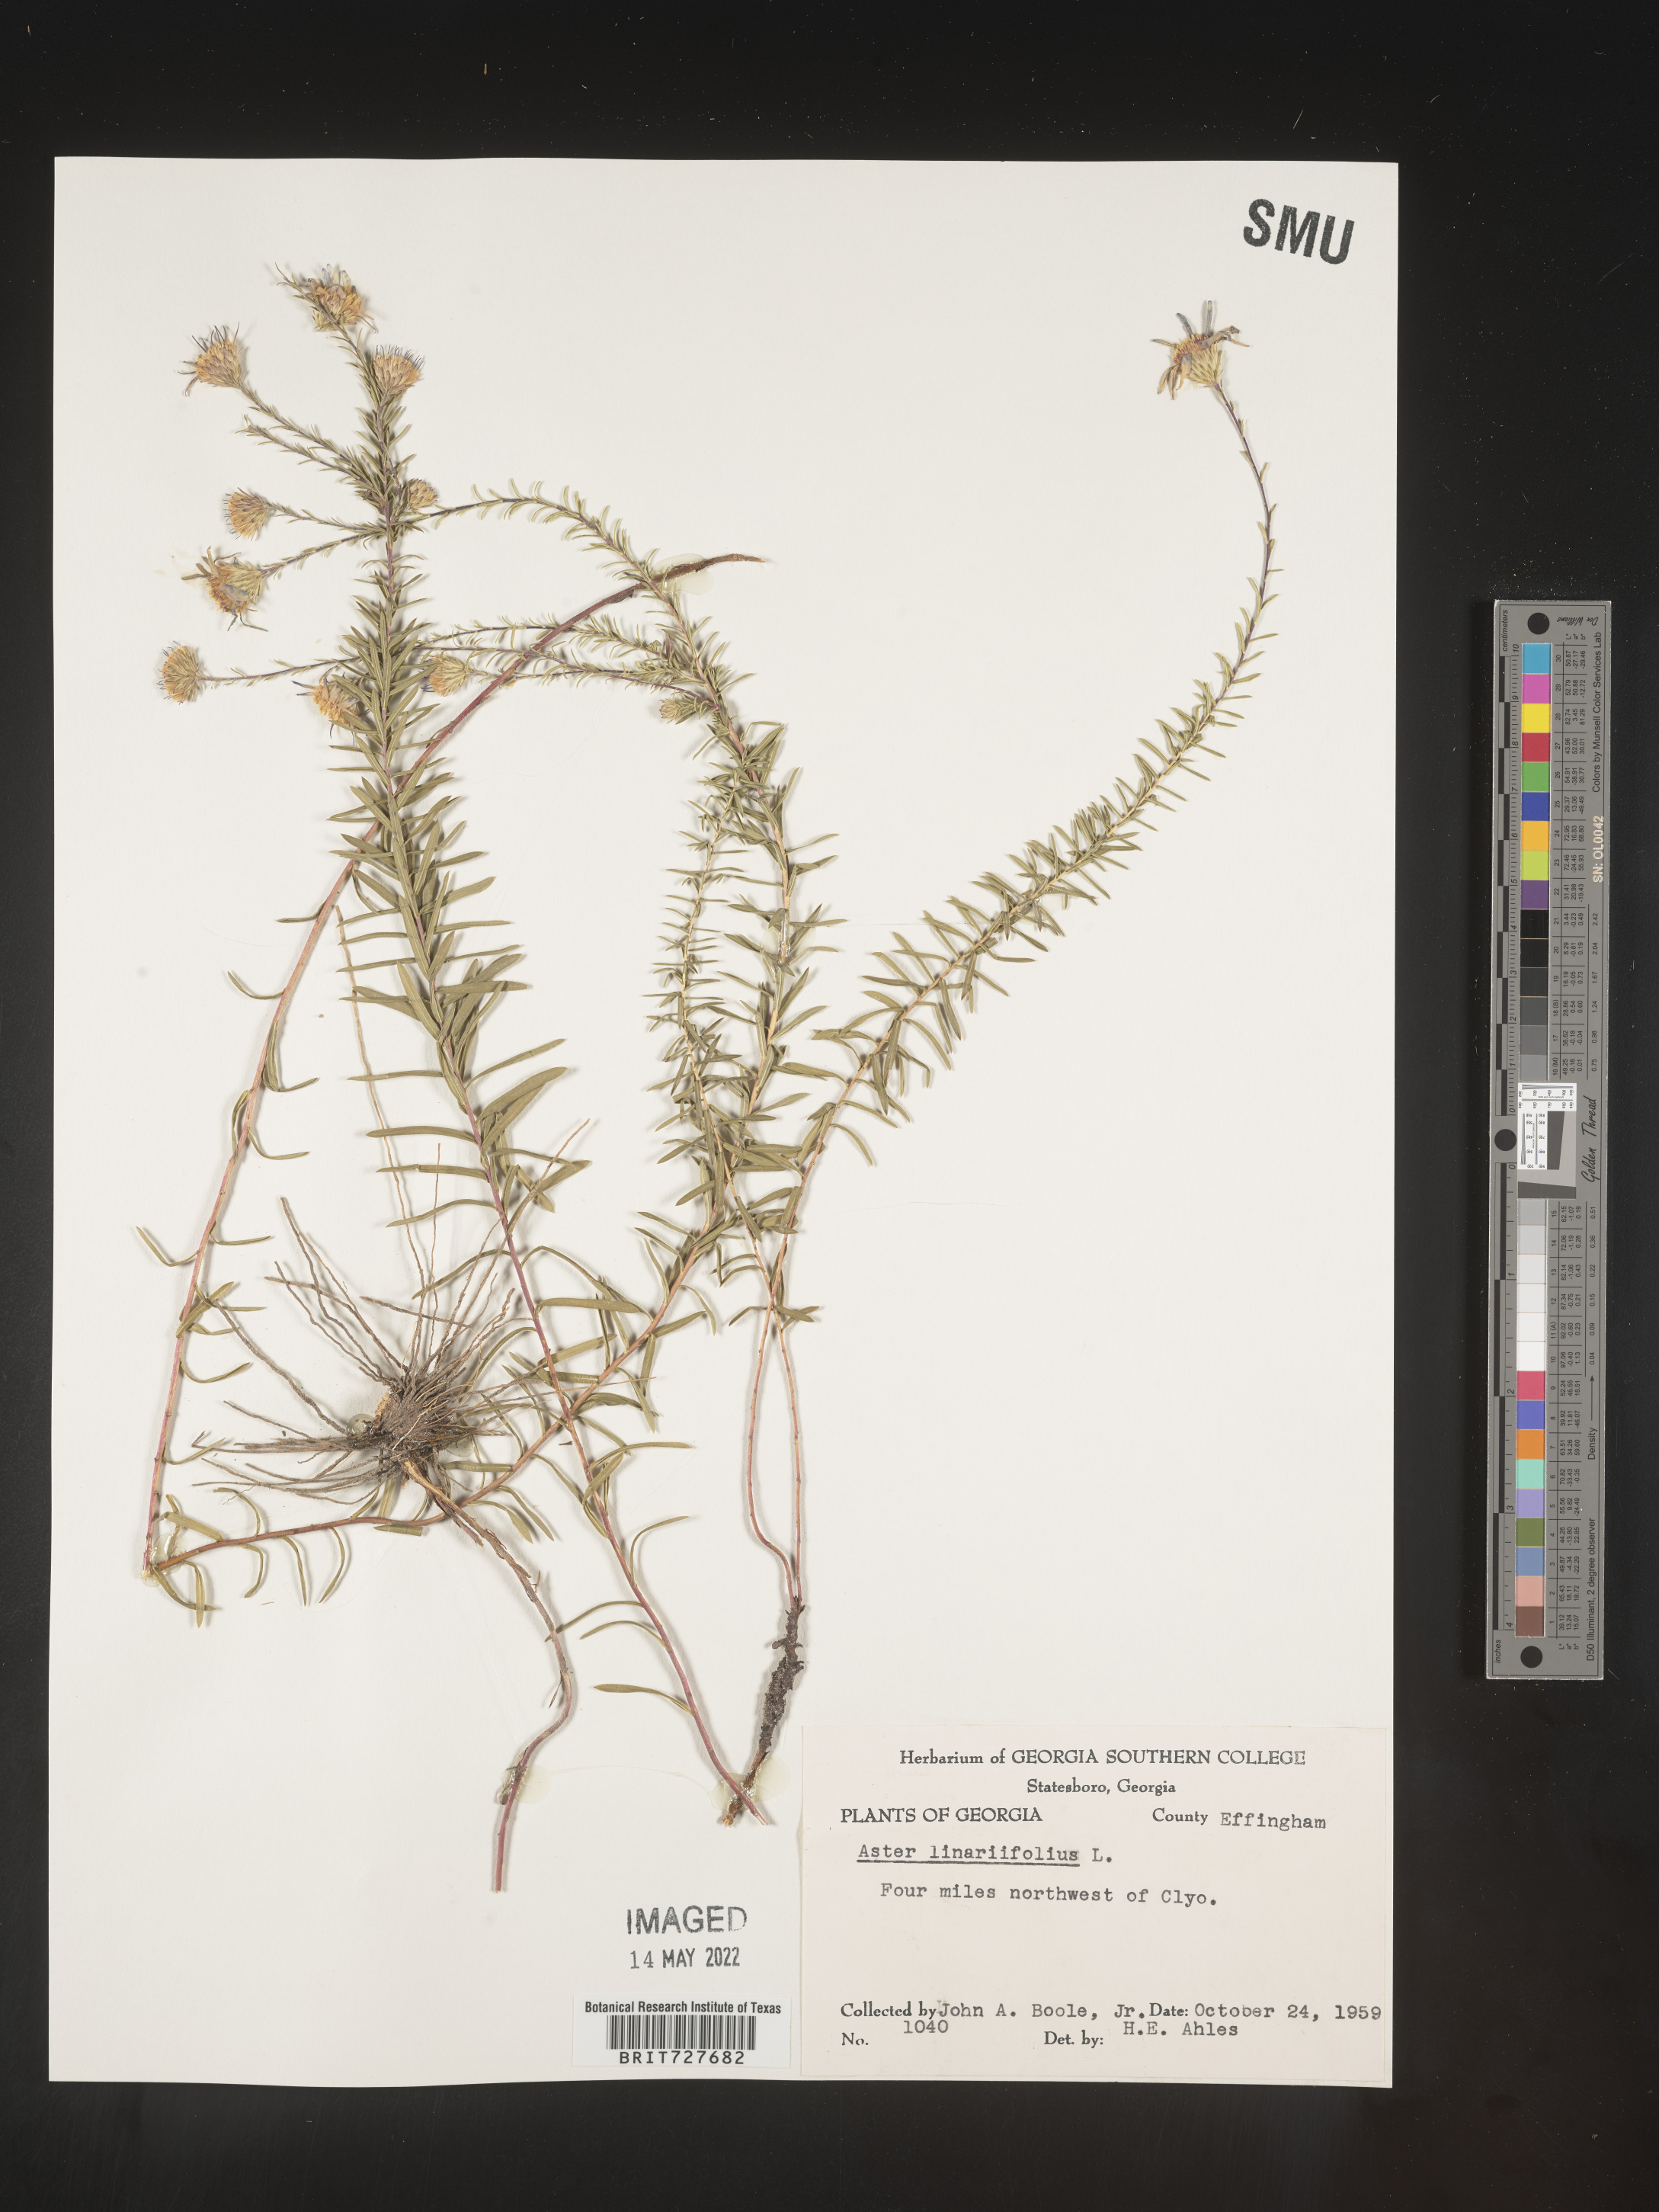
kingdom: Plantae
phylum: Tracheophyta
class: Magnoliopsida
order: Asterales
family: Asteraceae
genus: Ionactis
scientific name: Ionactis linariifolia
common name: Flax-leaf aster
